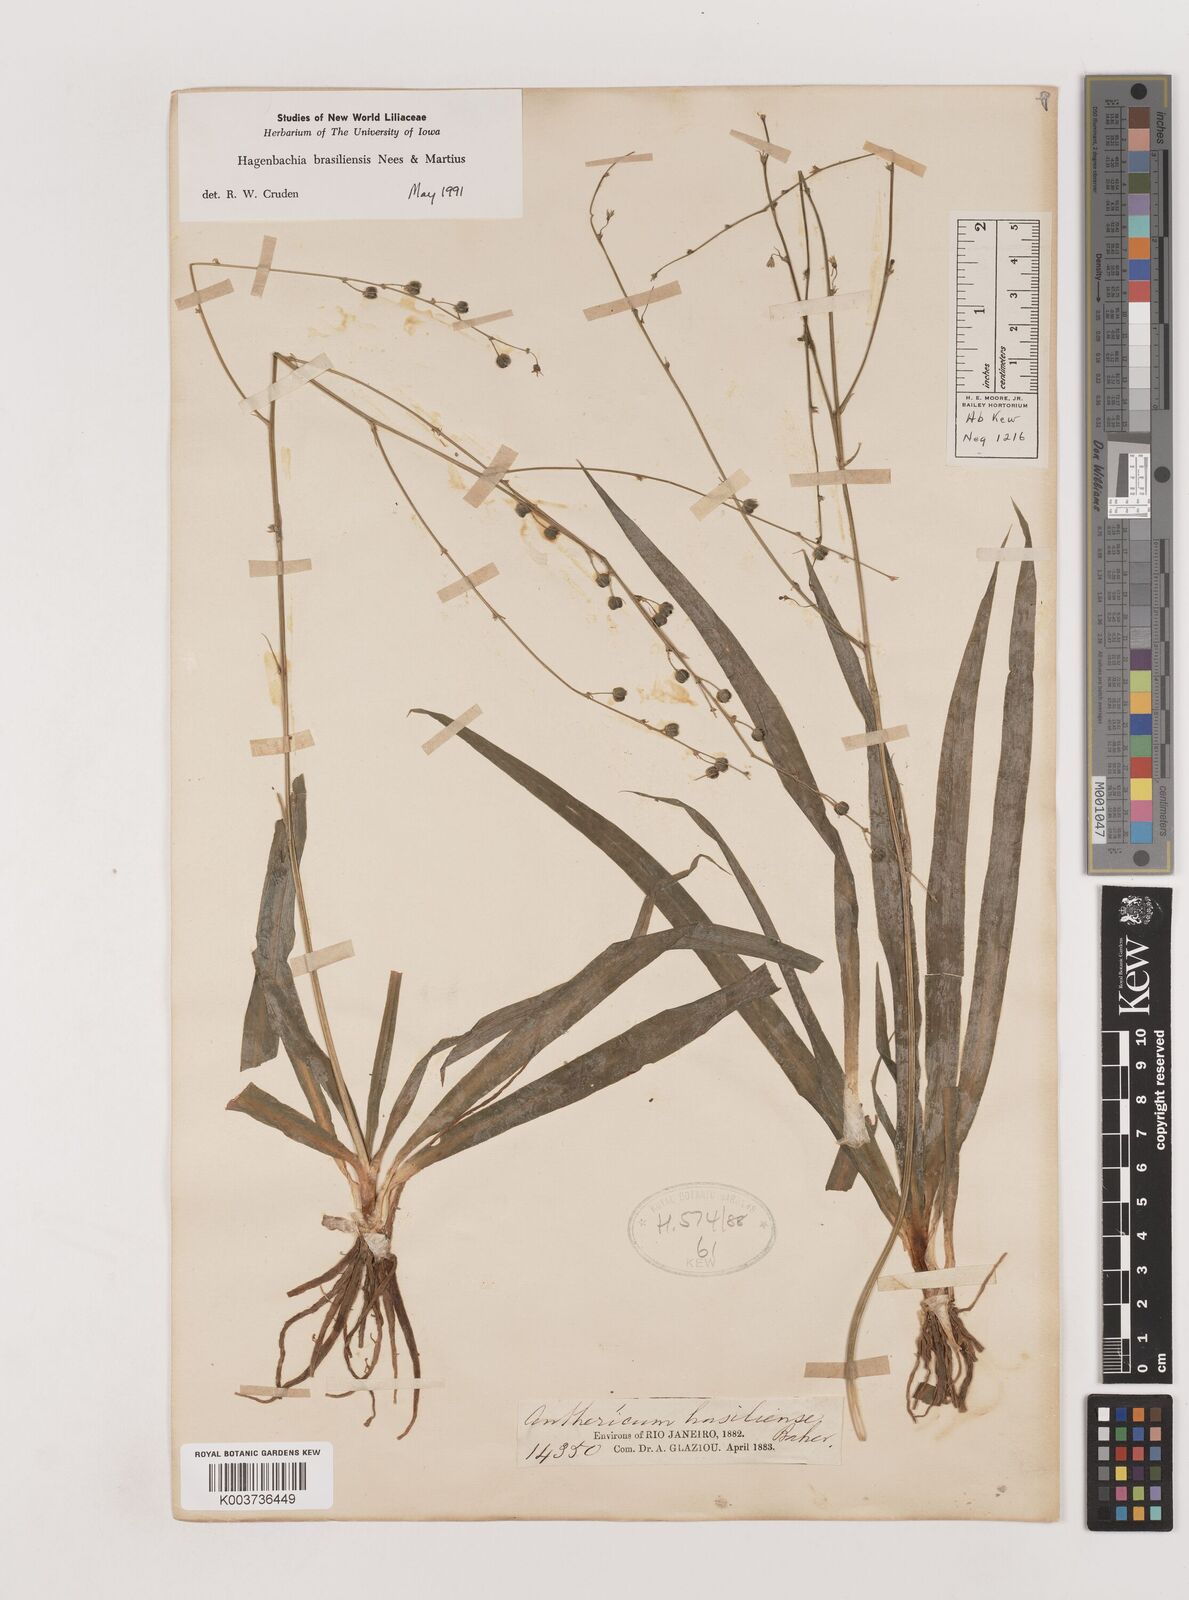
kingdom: Plantae
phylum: Tracheophyta
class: Liliopsida
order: Asparagales
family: Asparagaceae
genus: Hagenbachia
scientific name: Hagenbachia brasiliensis
